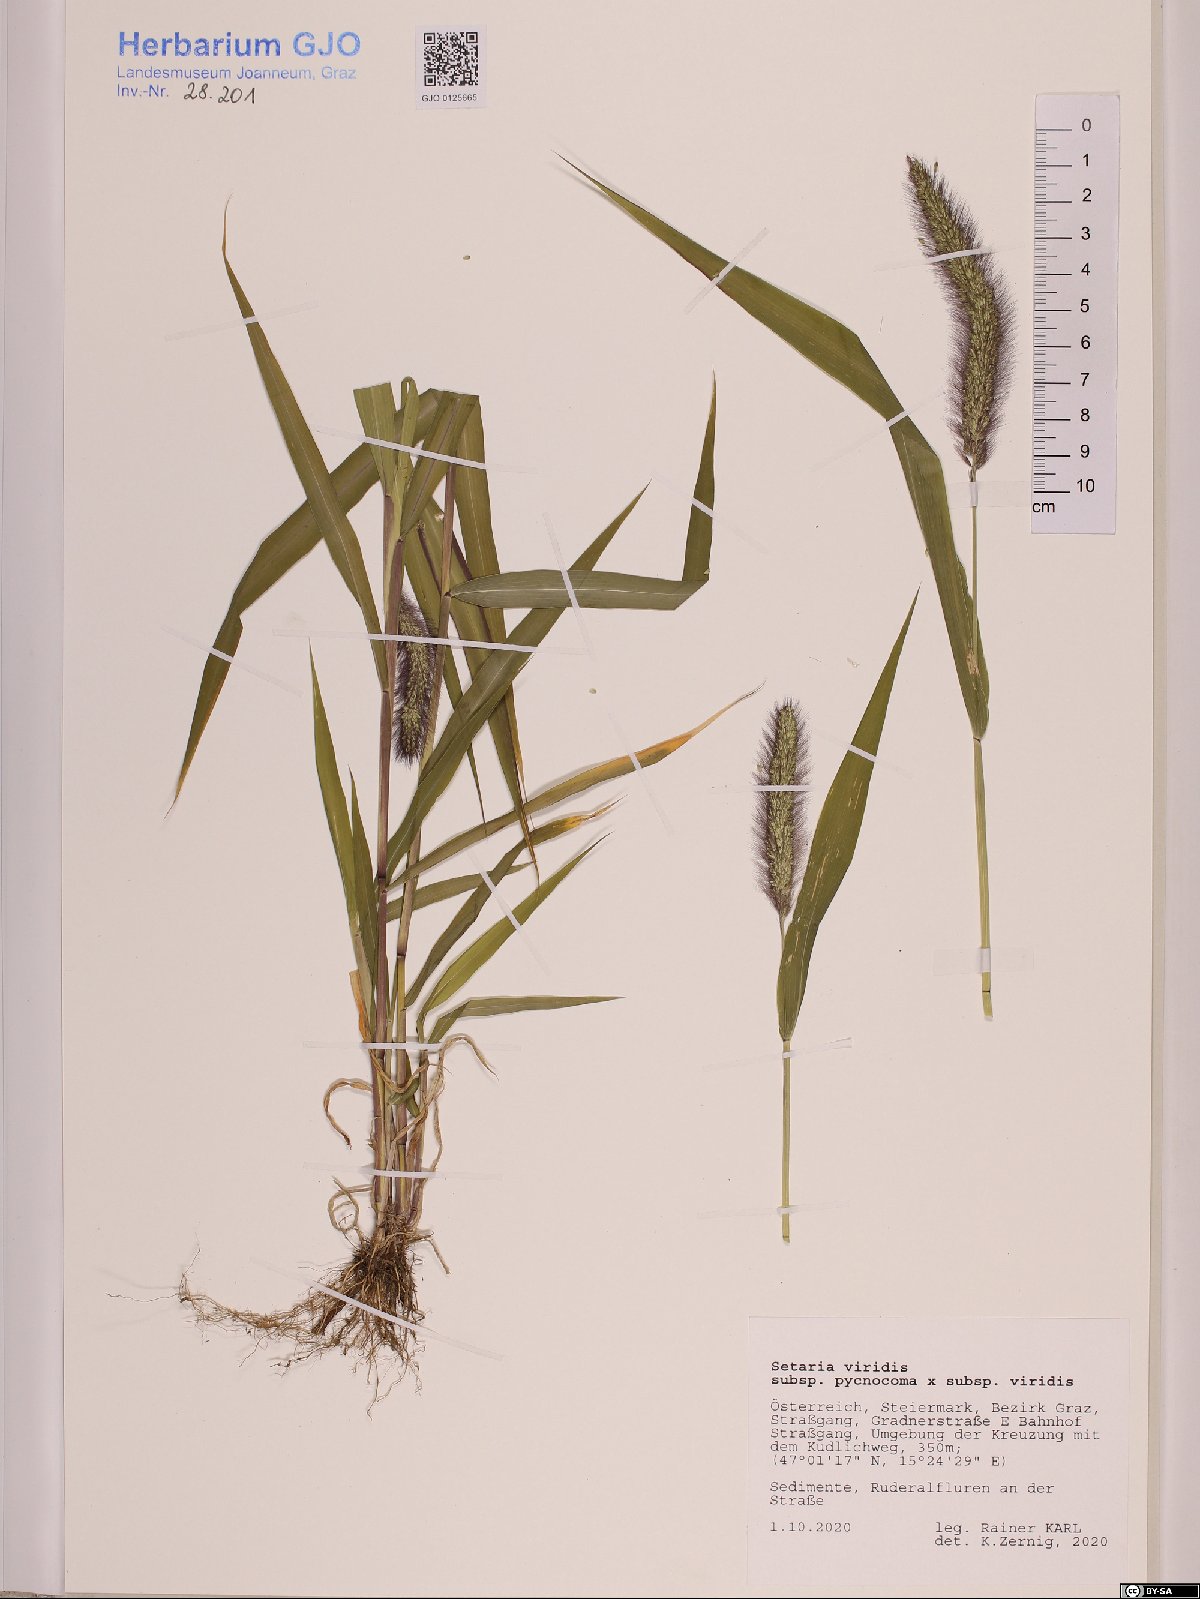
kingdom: Plantae
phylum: Tracheophyta
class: Liliopsida
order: Poales
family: Poaceae
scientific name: Poaceae
